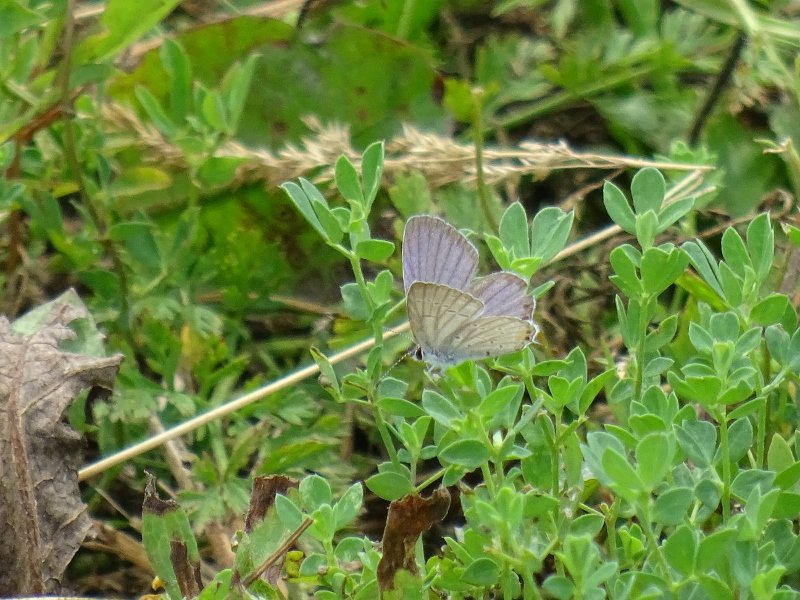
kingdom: Animalia
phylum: Arthropoda
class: Insecta
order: Lepidoptera
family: Lycaenidae
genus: Elkalyce
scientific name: Elkalyce comyntas
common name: Eastern Tailed-Blue
